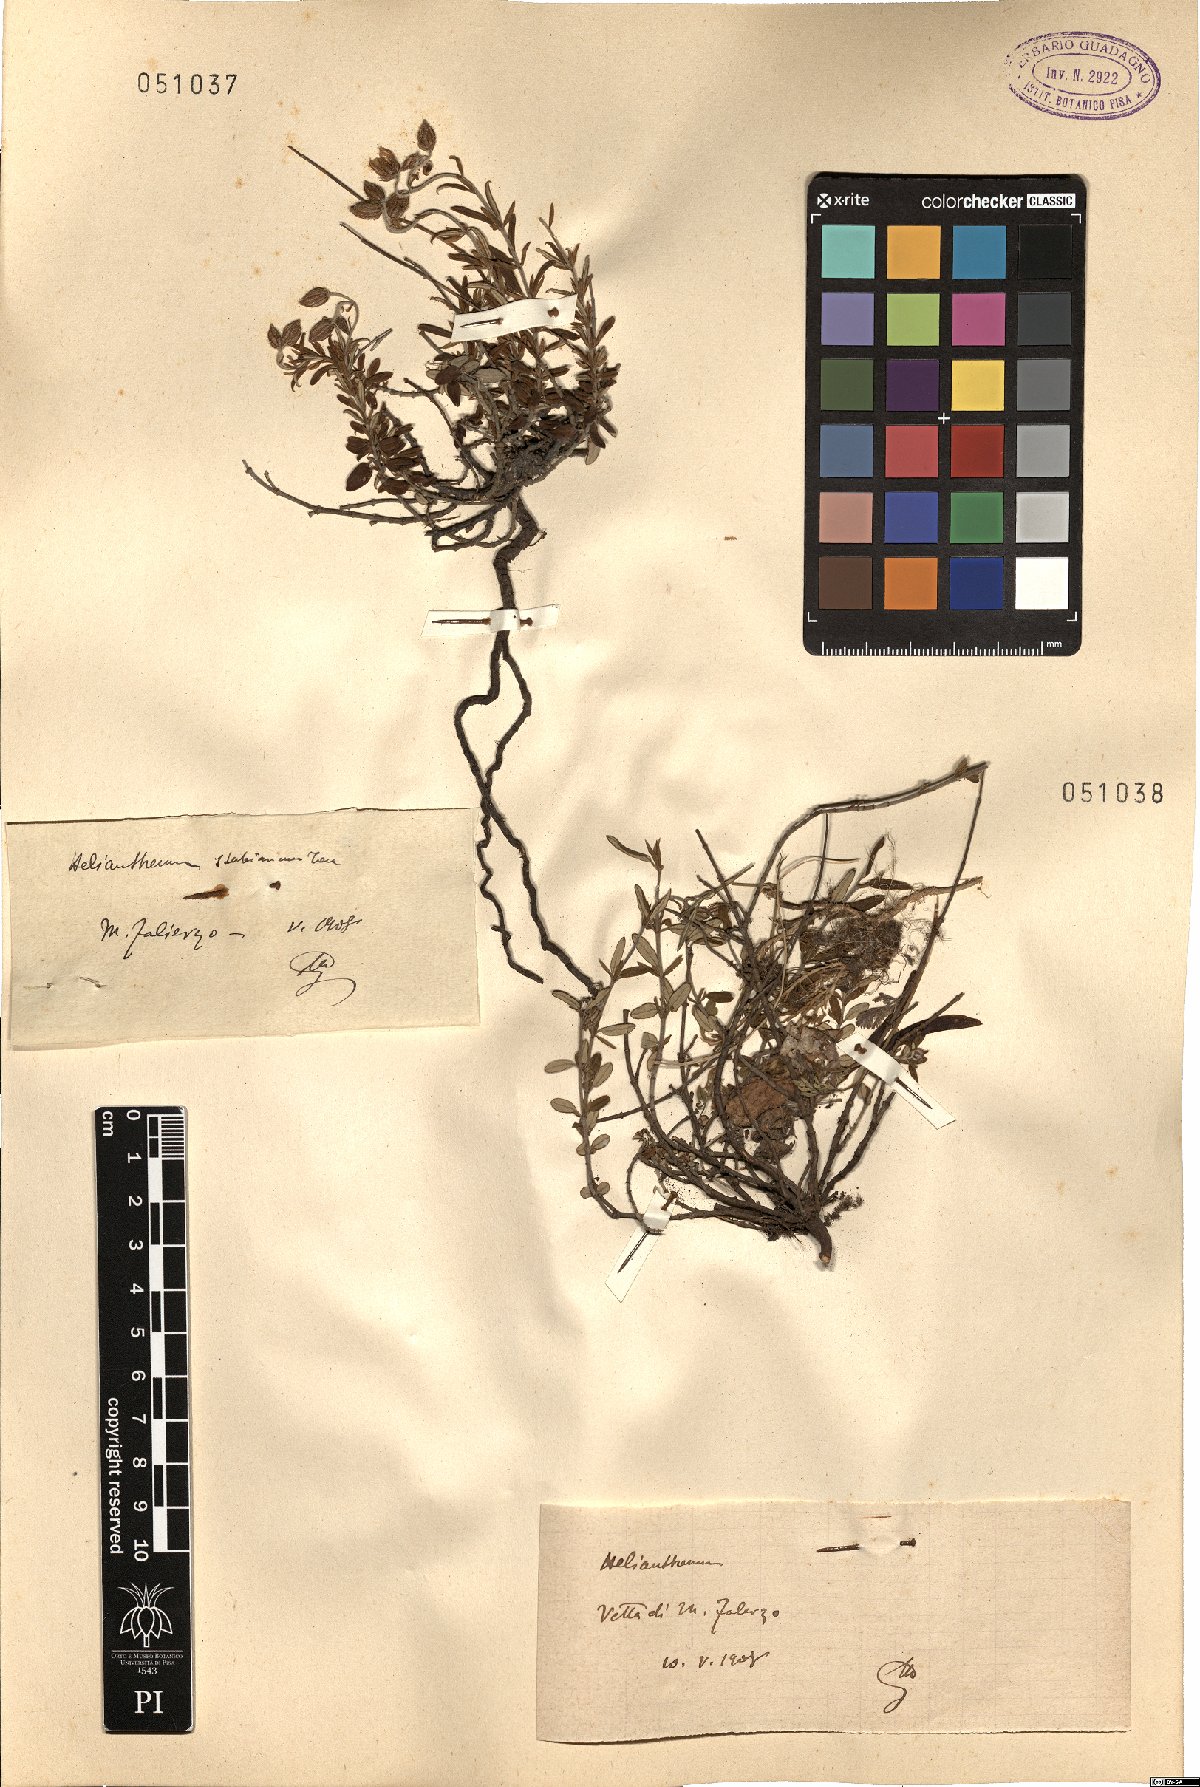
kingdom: Plantae
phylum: Tracheophyta
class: Magnoliopsida
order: Malvales
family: Cistaceae
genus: Helianthemum
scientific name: Helianthemum
